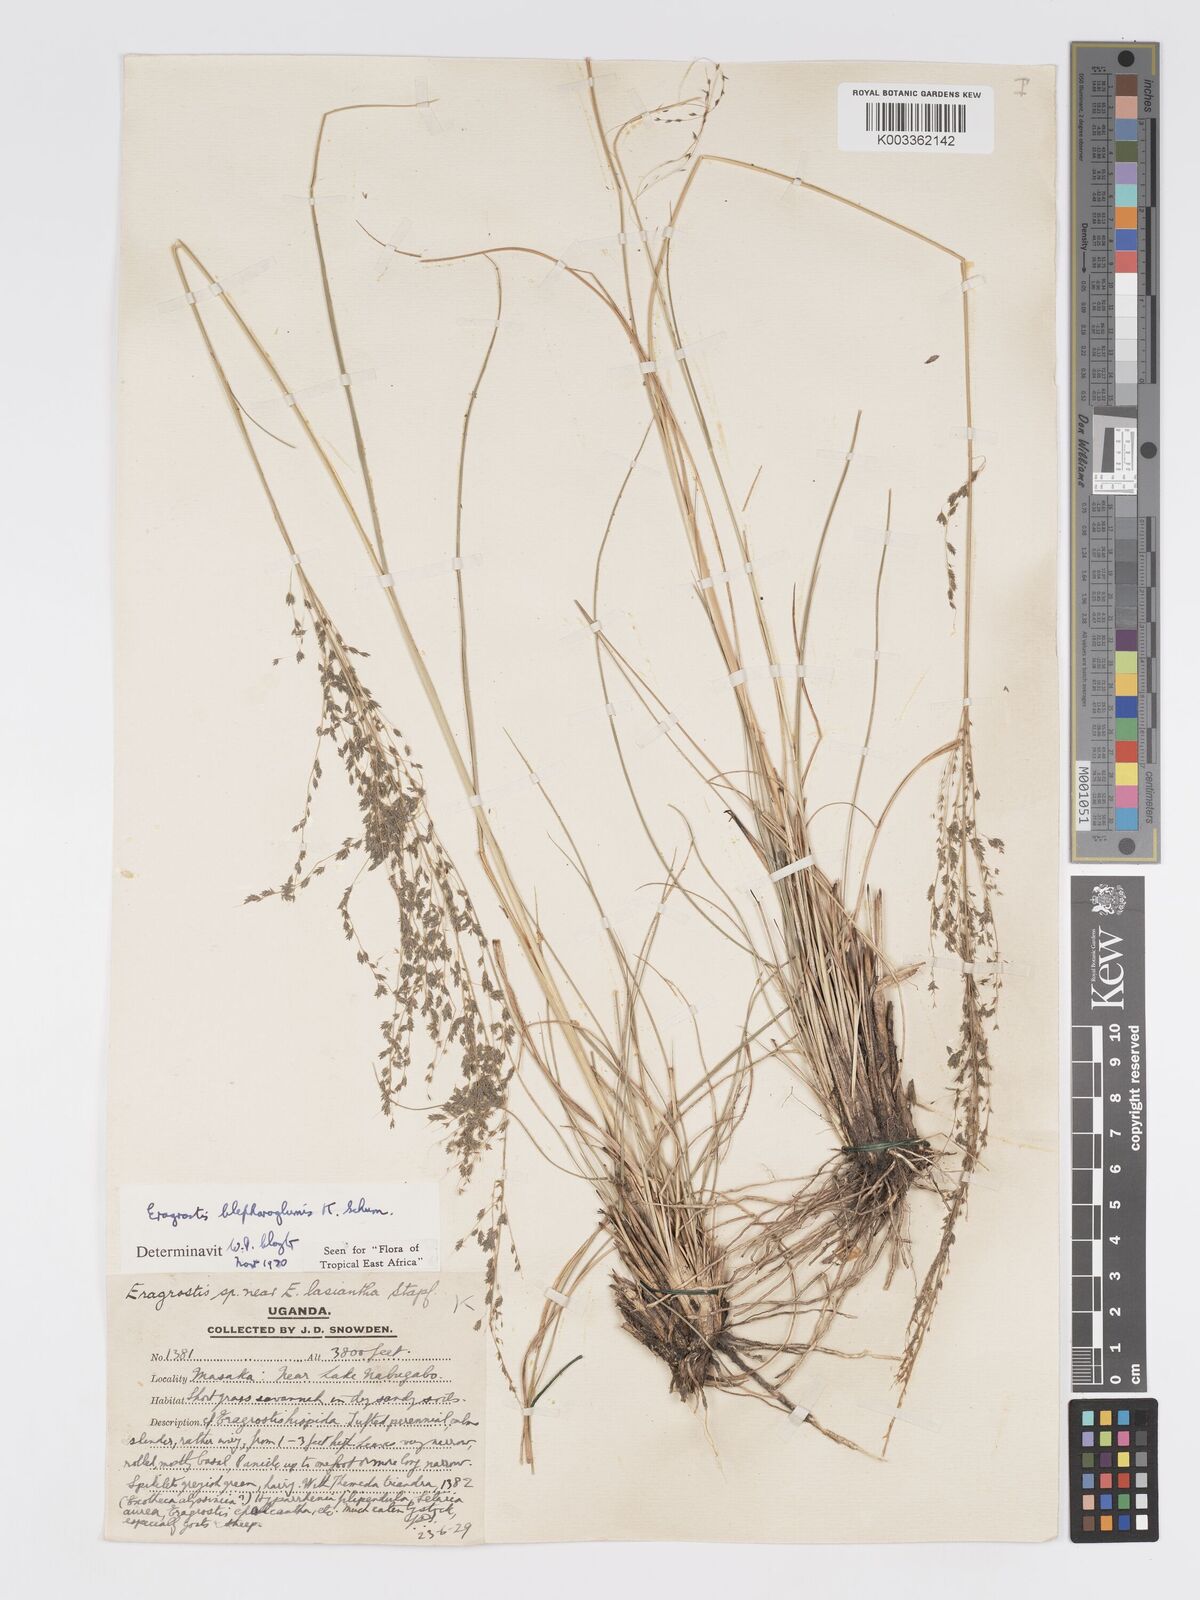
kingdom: Plantae
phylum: Tracheophyta
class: Liliopsida
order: Poales
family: Poaceae
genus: Eragrostis
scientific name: Eragrostis olivacea
